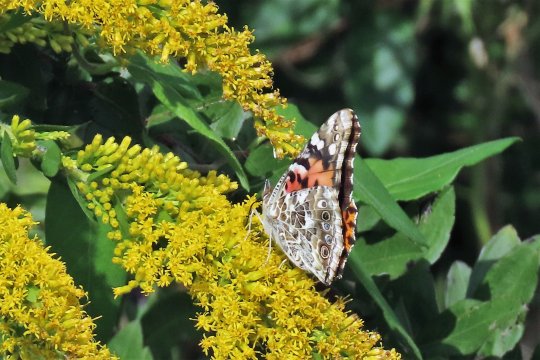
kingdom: Animalia
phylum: Arthropoda
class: Insecta
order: Lepidoptera
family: Nymphalidae
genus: Vanessa
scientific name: Vanessa cardui
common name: Painted Lady
